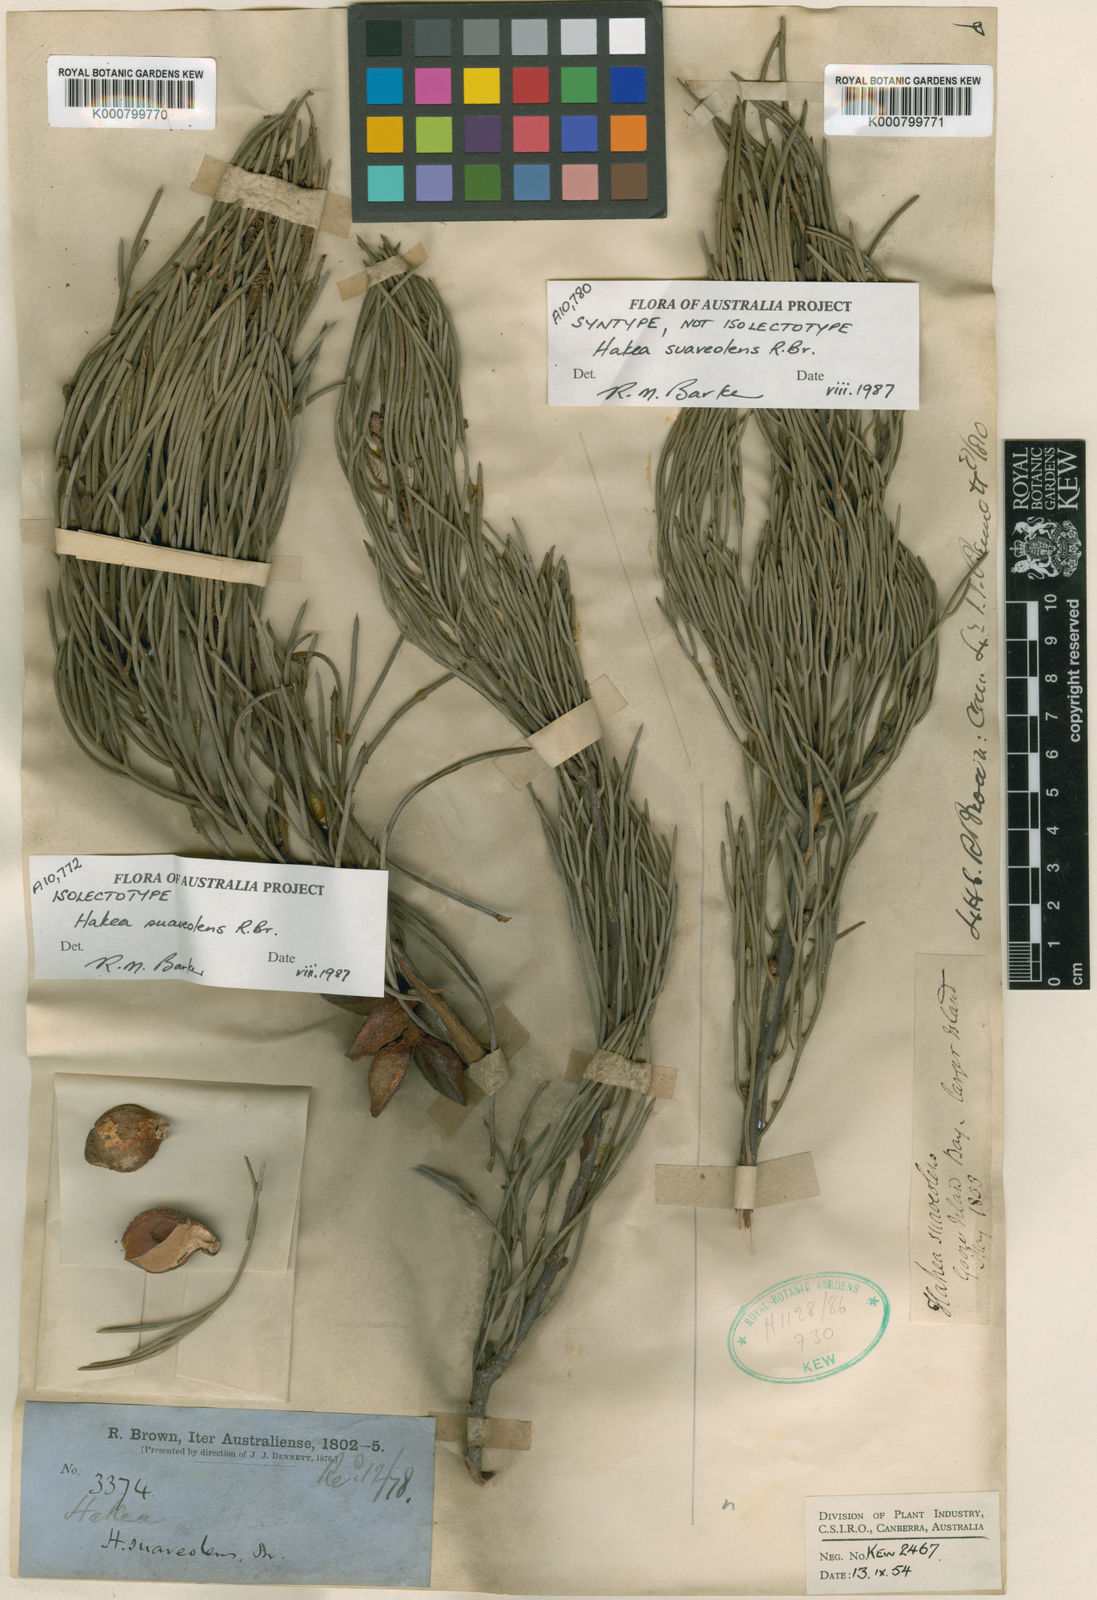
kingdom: Plantae
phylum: Tracheophyta
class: Magnoliopsida
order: Proteales
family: Proteaceae
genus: Hakea
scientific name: Hakea drupacea
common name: Sweet hakea
